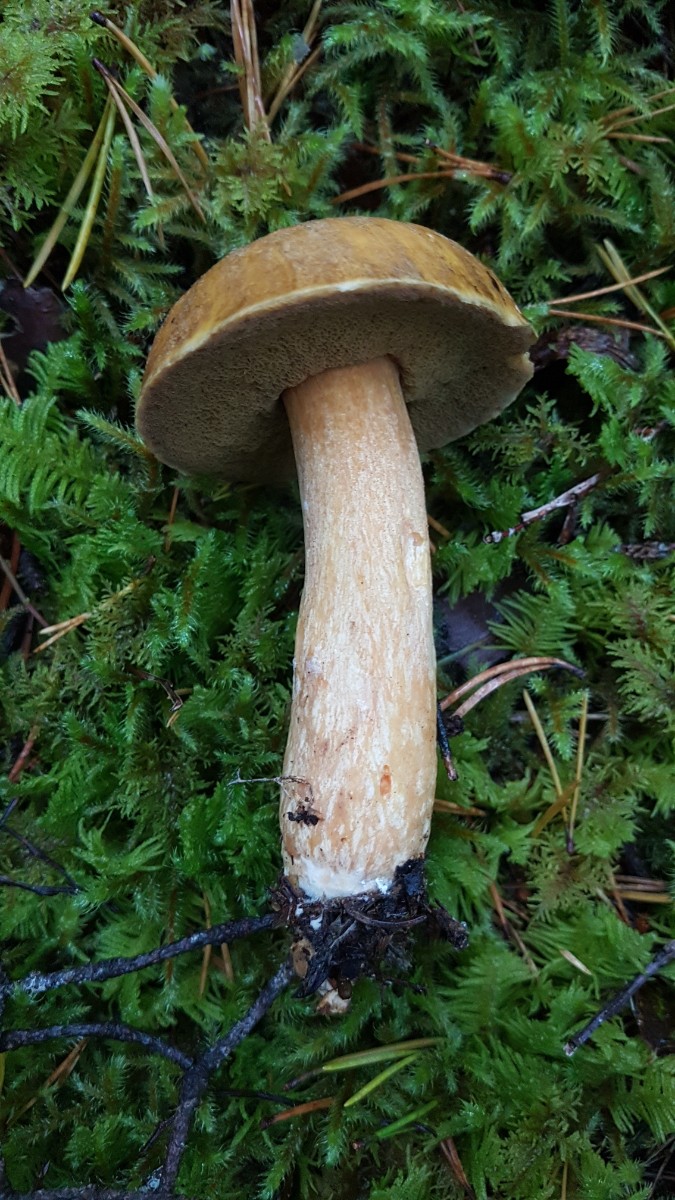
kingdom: Fungi
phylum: Basidiomycota
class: Agaricomycetes
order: Boletales
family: Suillaceae
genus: Suillus
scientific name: Suillus variegatus
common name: broget slimrørhat
